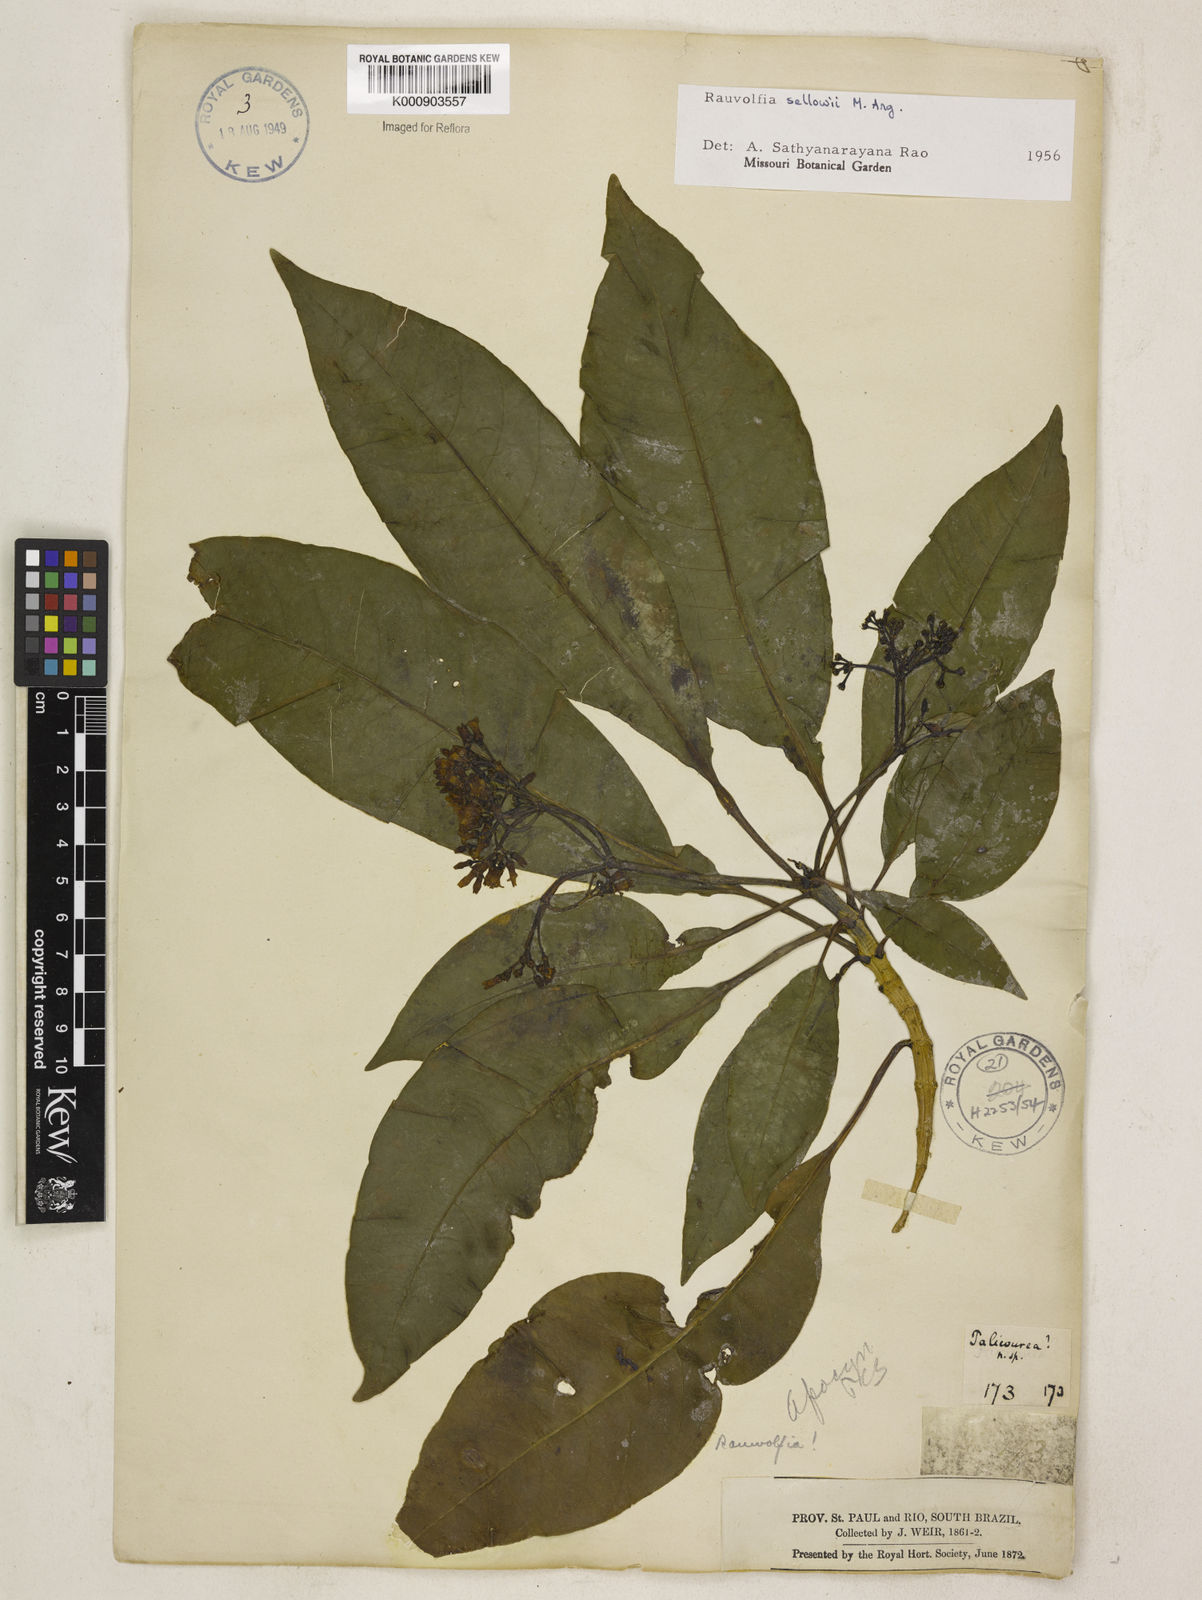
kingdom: Plantae
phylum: Tracheophyta
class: Magnoliopsida
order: Gentianales
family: Apocynaceae
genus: Rauvolfia
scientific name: Rauvolfia
